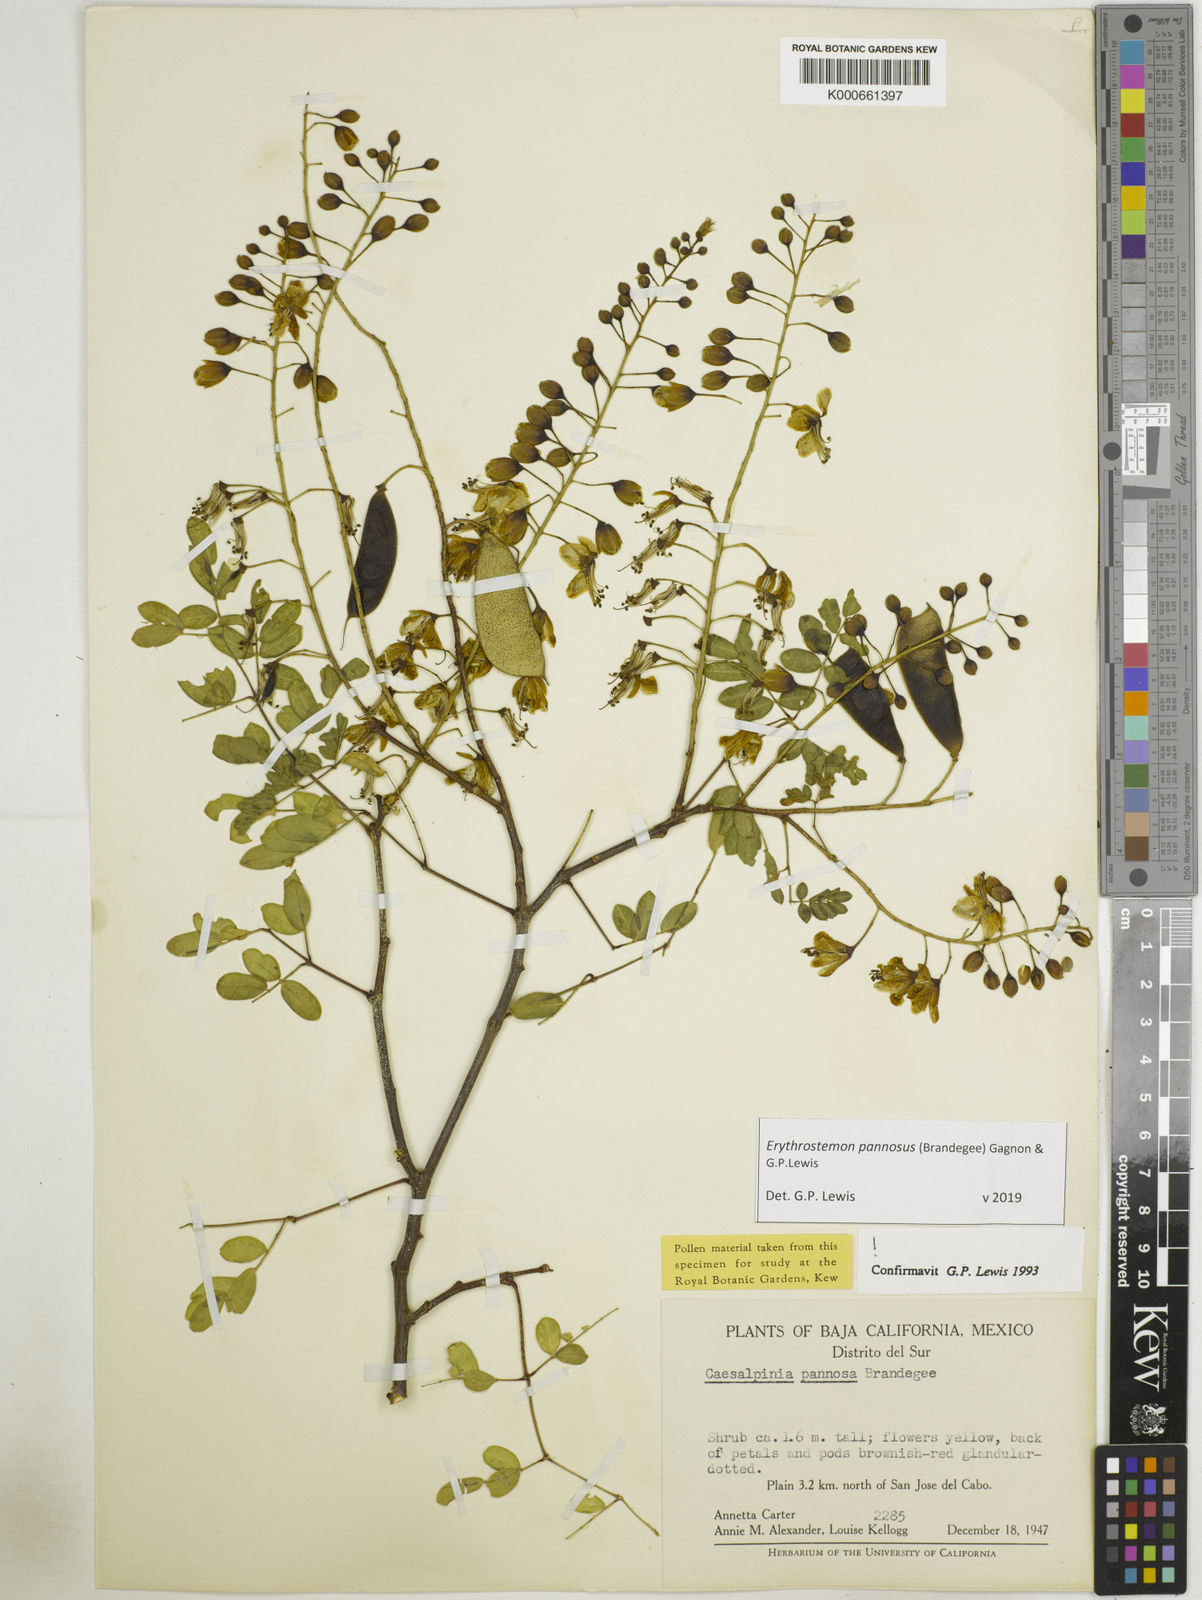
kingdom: Plantae
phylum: Tracheophyta
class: Magnoliopsida
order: Fabales
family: Fabaceae
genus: Erythrostemon
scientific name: Erythrostemon pannosus
